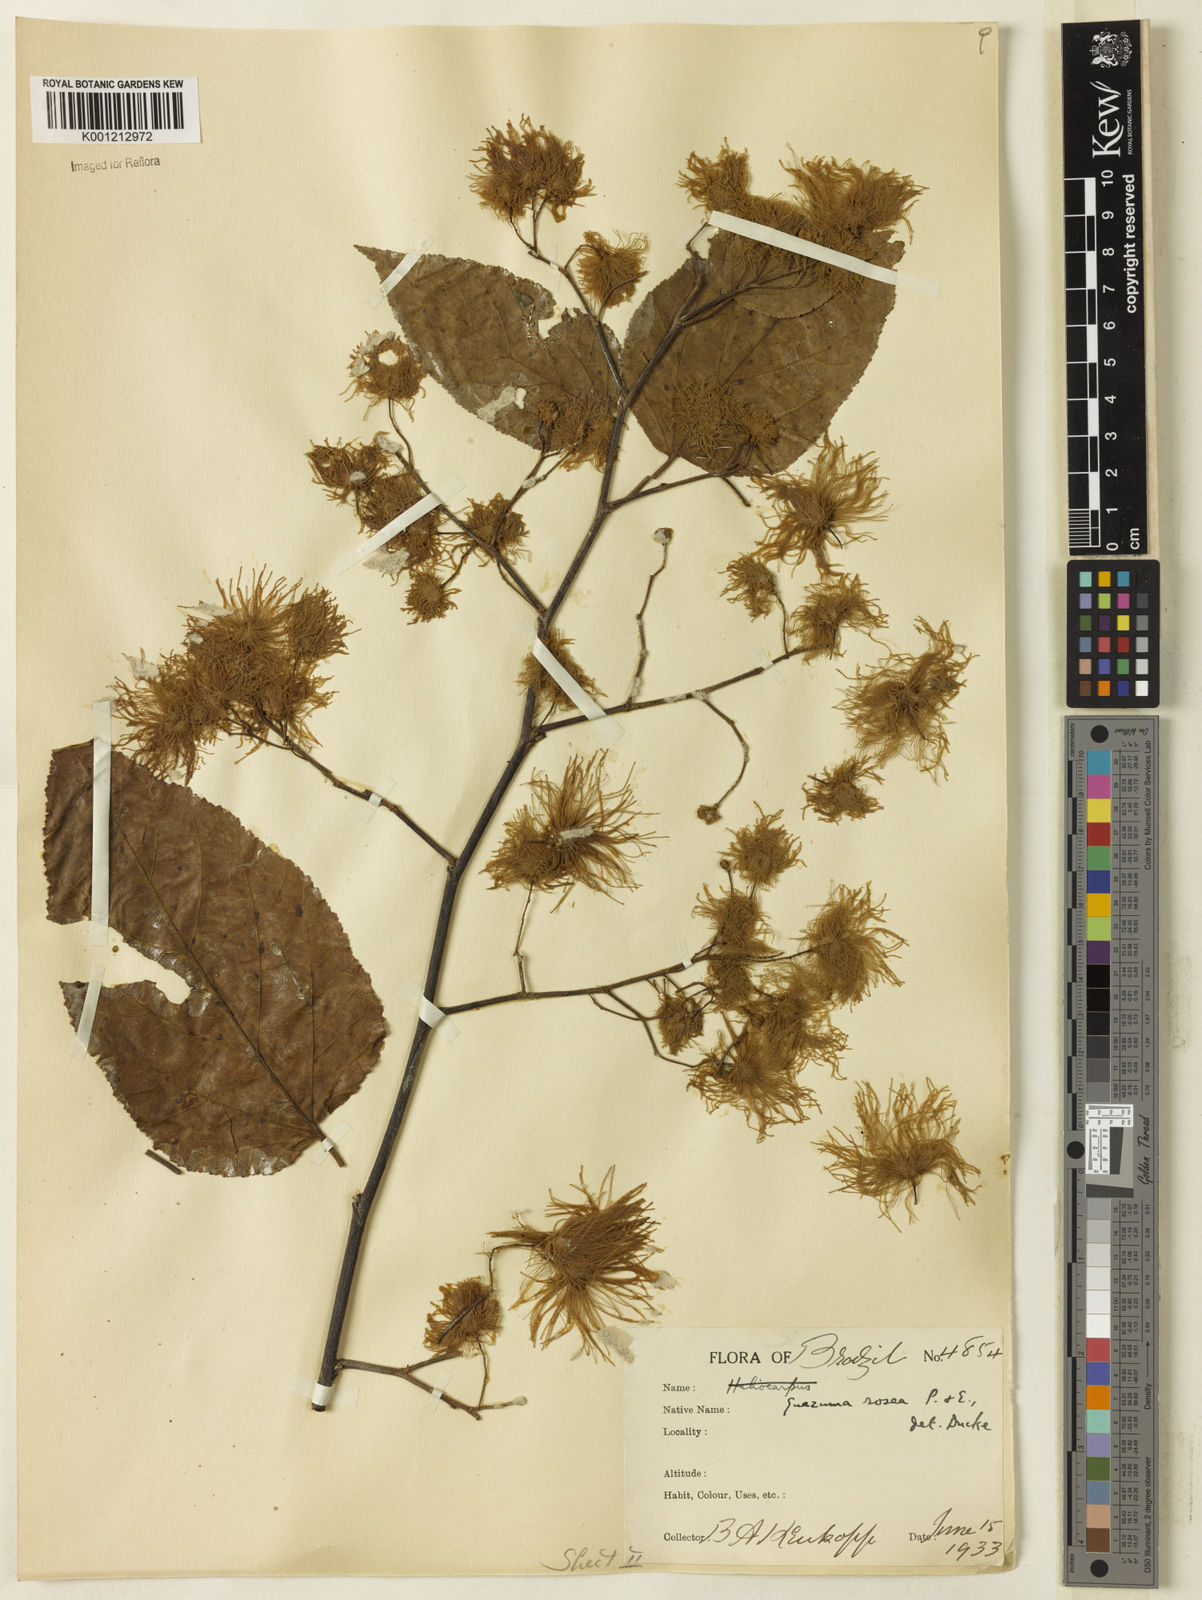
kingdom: Plantae
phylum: Tracheophyta
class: Magnoliopsida
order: Malvales
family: Malvaceae
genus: Guazuma
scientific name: Guazuma crinita
